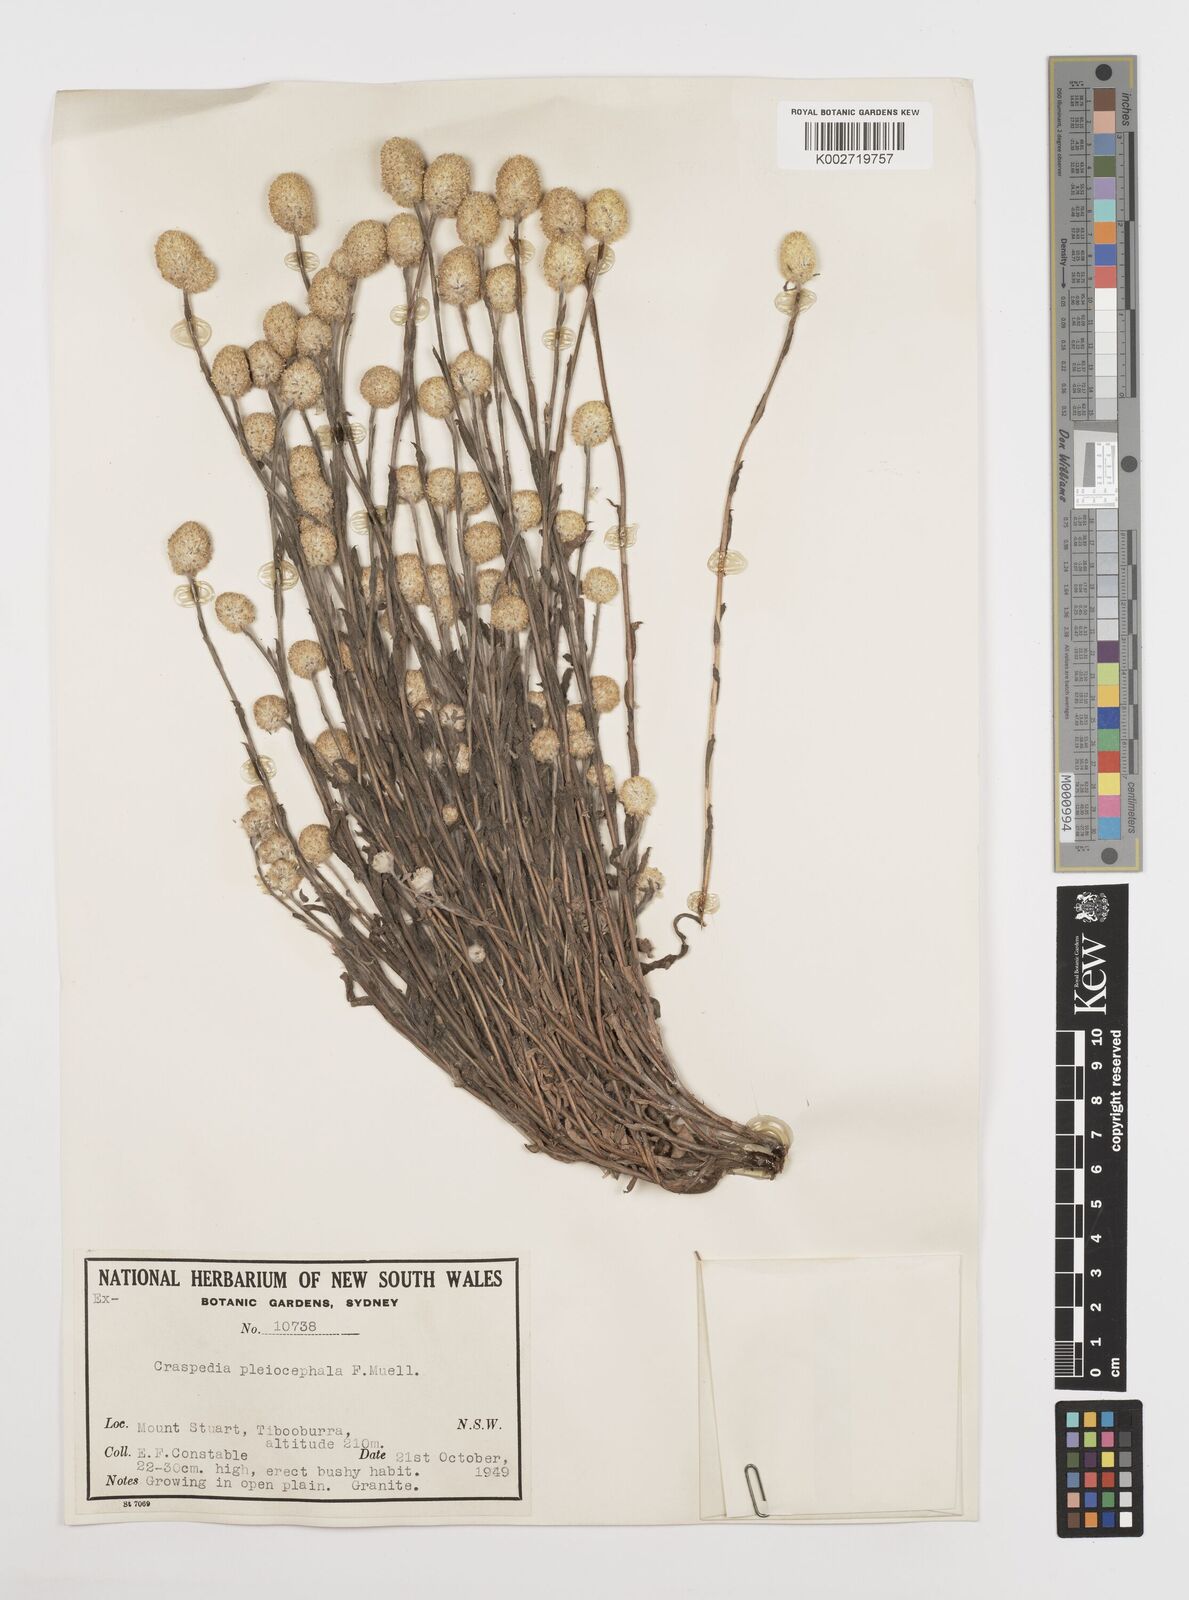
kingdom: Plantae
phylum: Tracheophyta
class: Magnoliopsida
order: Asterales
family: Asteraceae
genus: Pycnosorus
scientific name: Pycnosorus pleiocephalus
